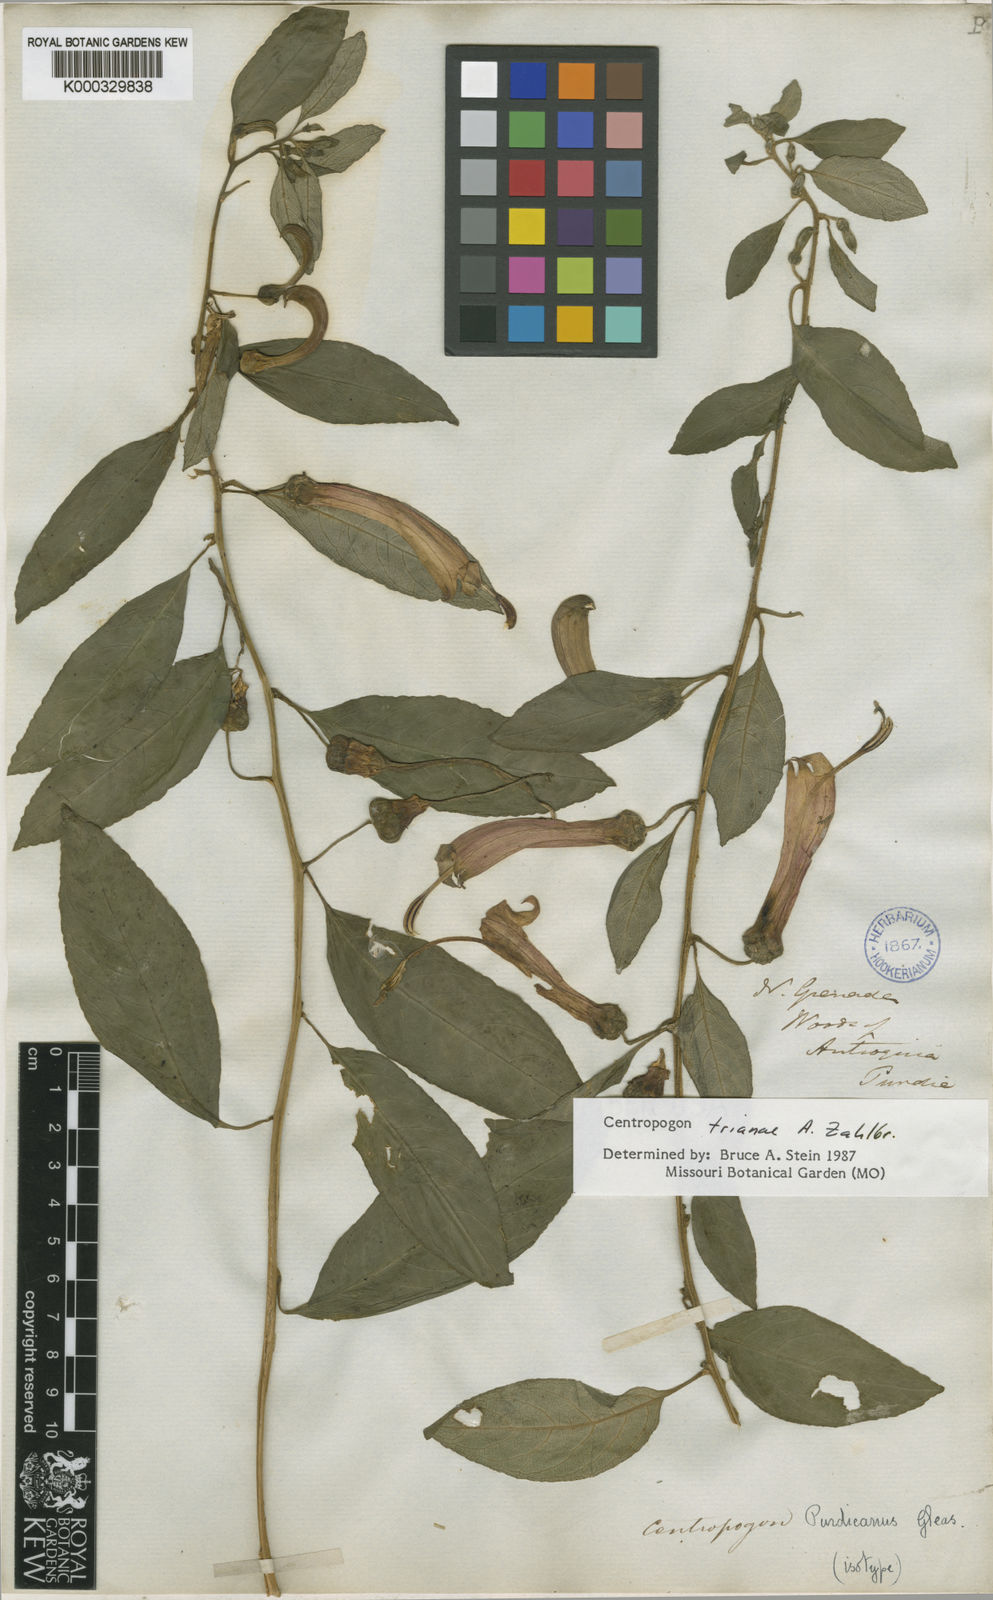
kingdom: Plantae
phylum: Tracheophyta
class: Magnoliopsida
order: Asterales
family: Campanulaceae
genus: Centropogon
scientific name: Centropogon trianae
